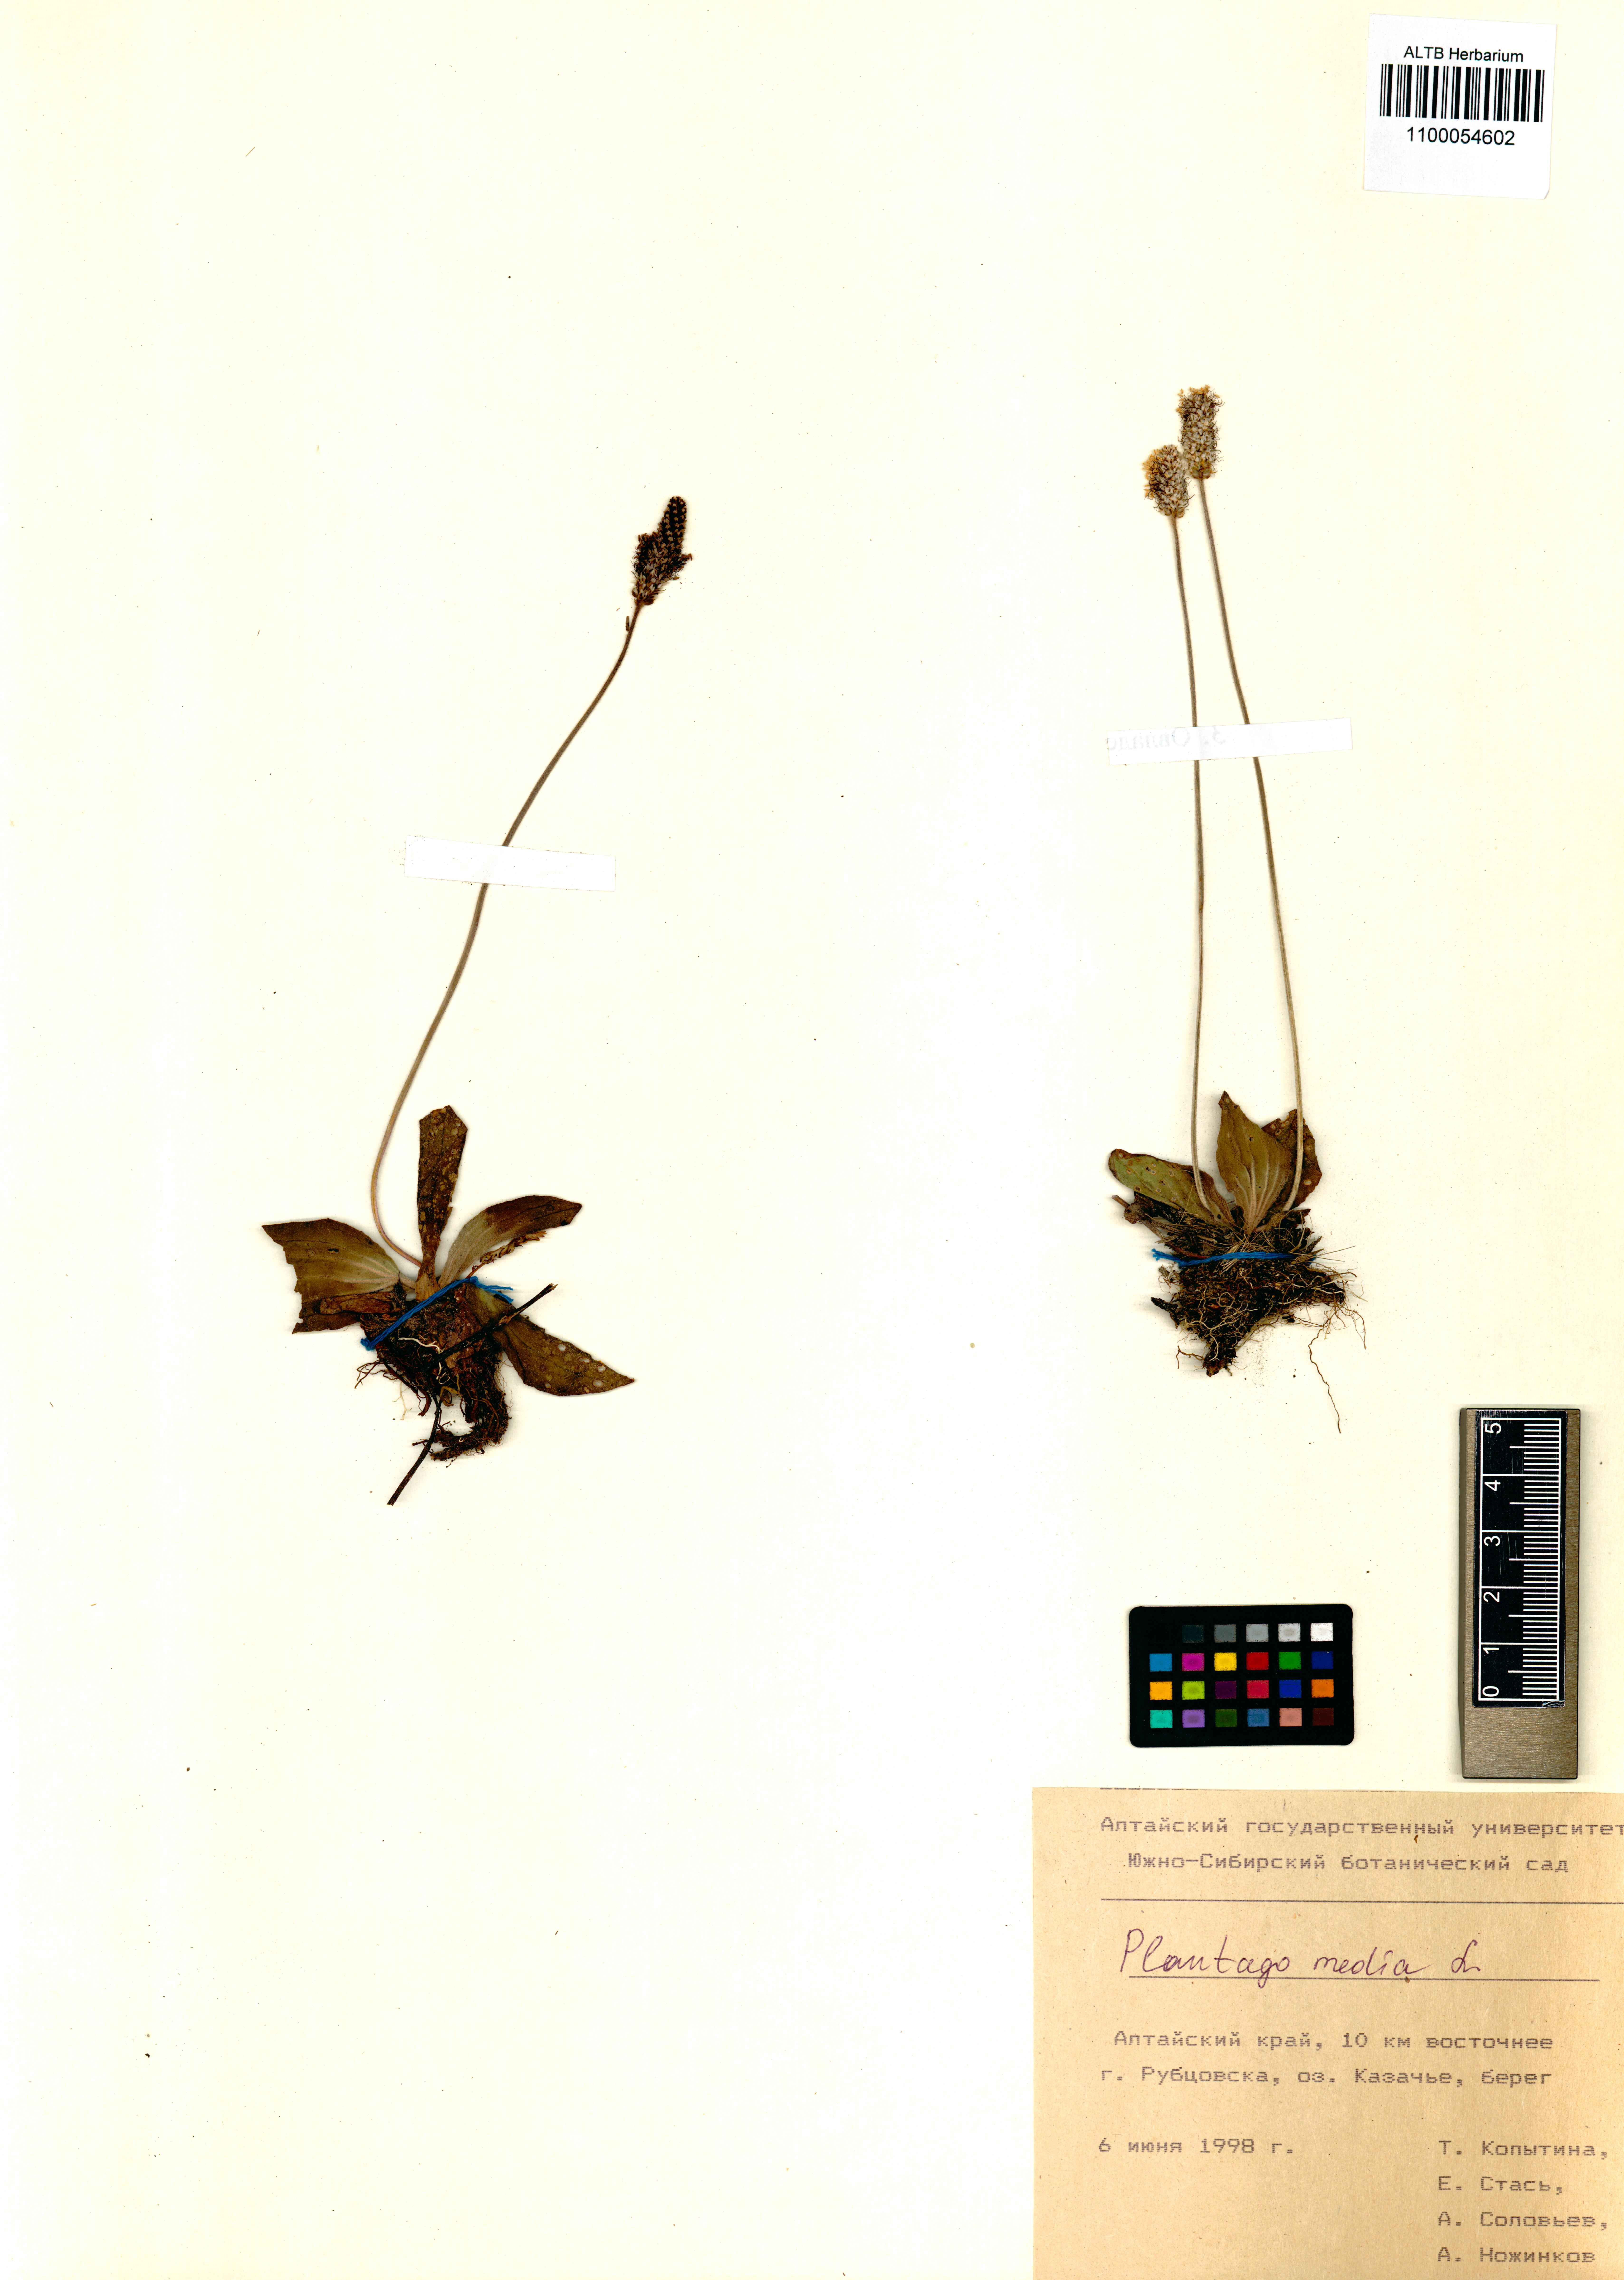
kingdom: Plantae
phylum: Tracheophyta
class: Magnoliopsida
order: Lamiales
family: Plantaginaceae
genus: Plantago
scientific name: Plantago media
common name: Hoary plantain
